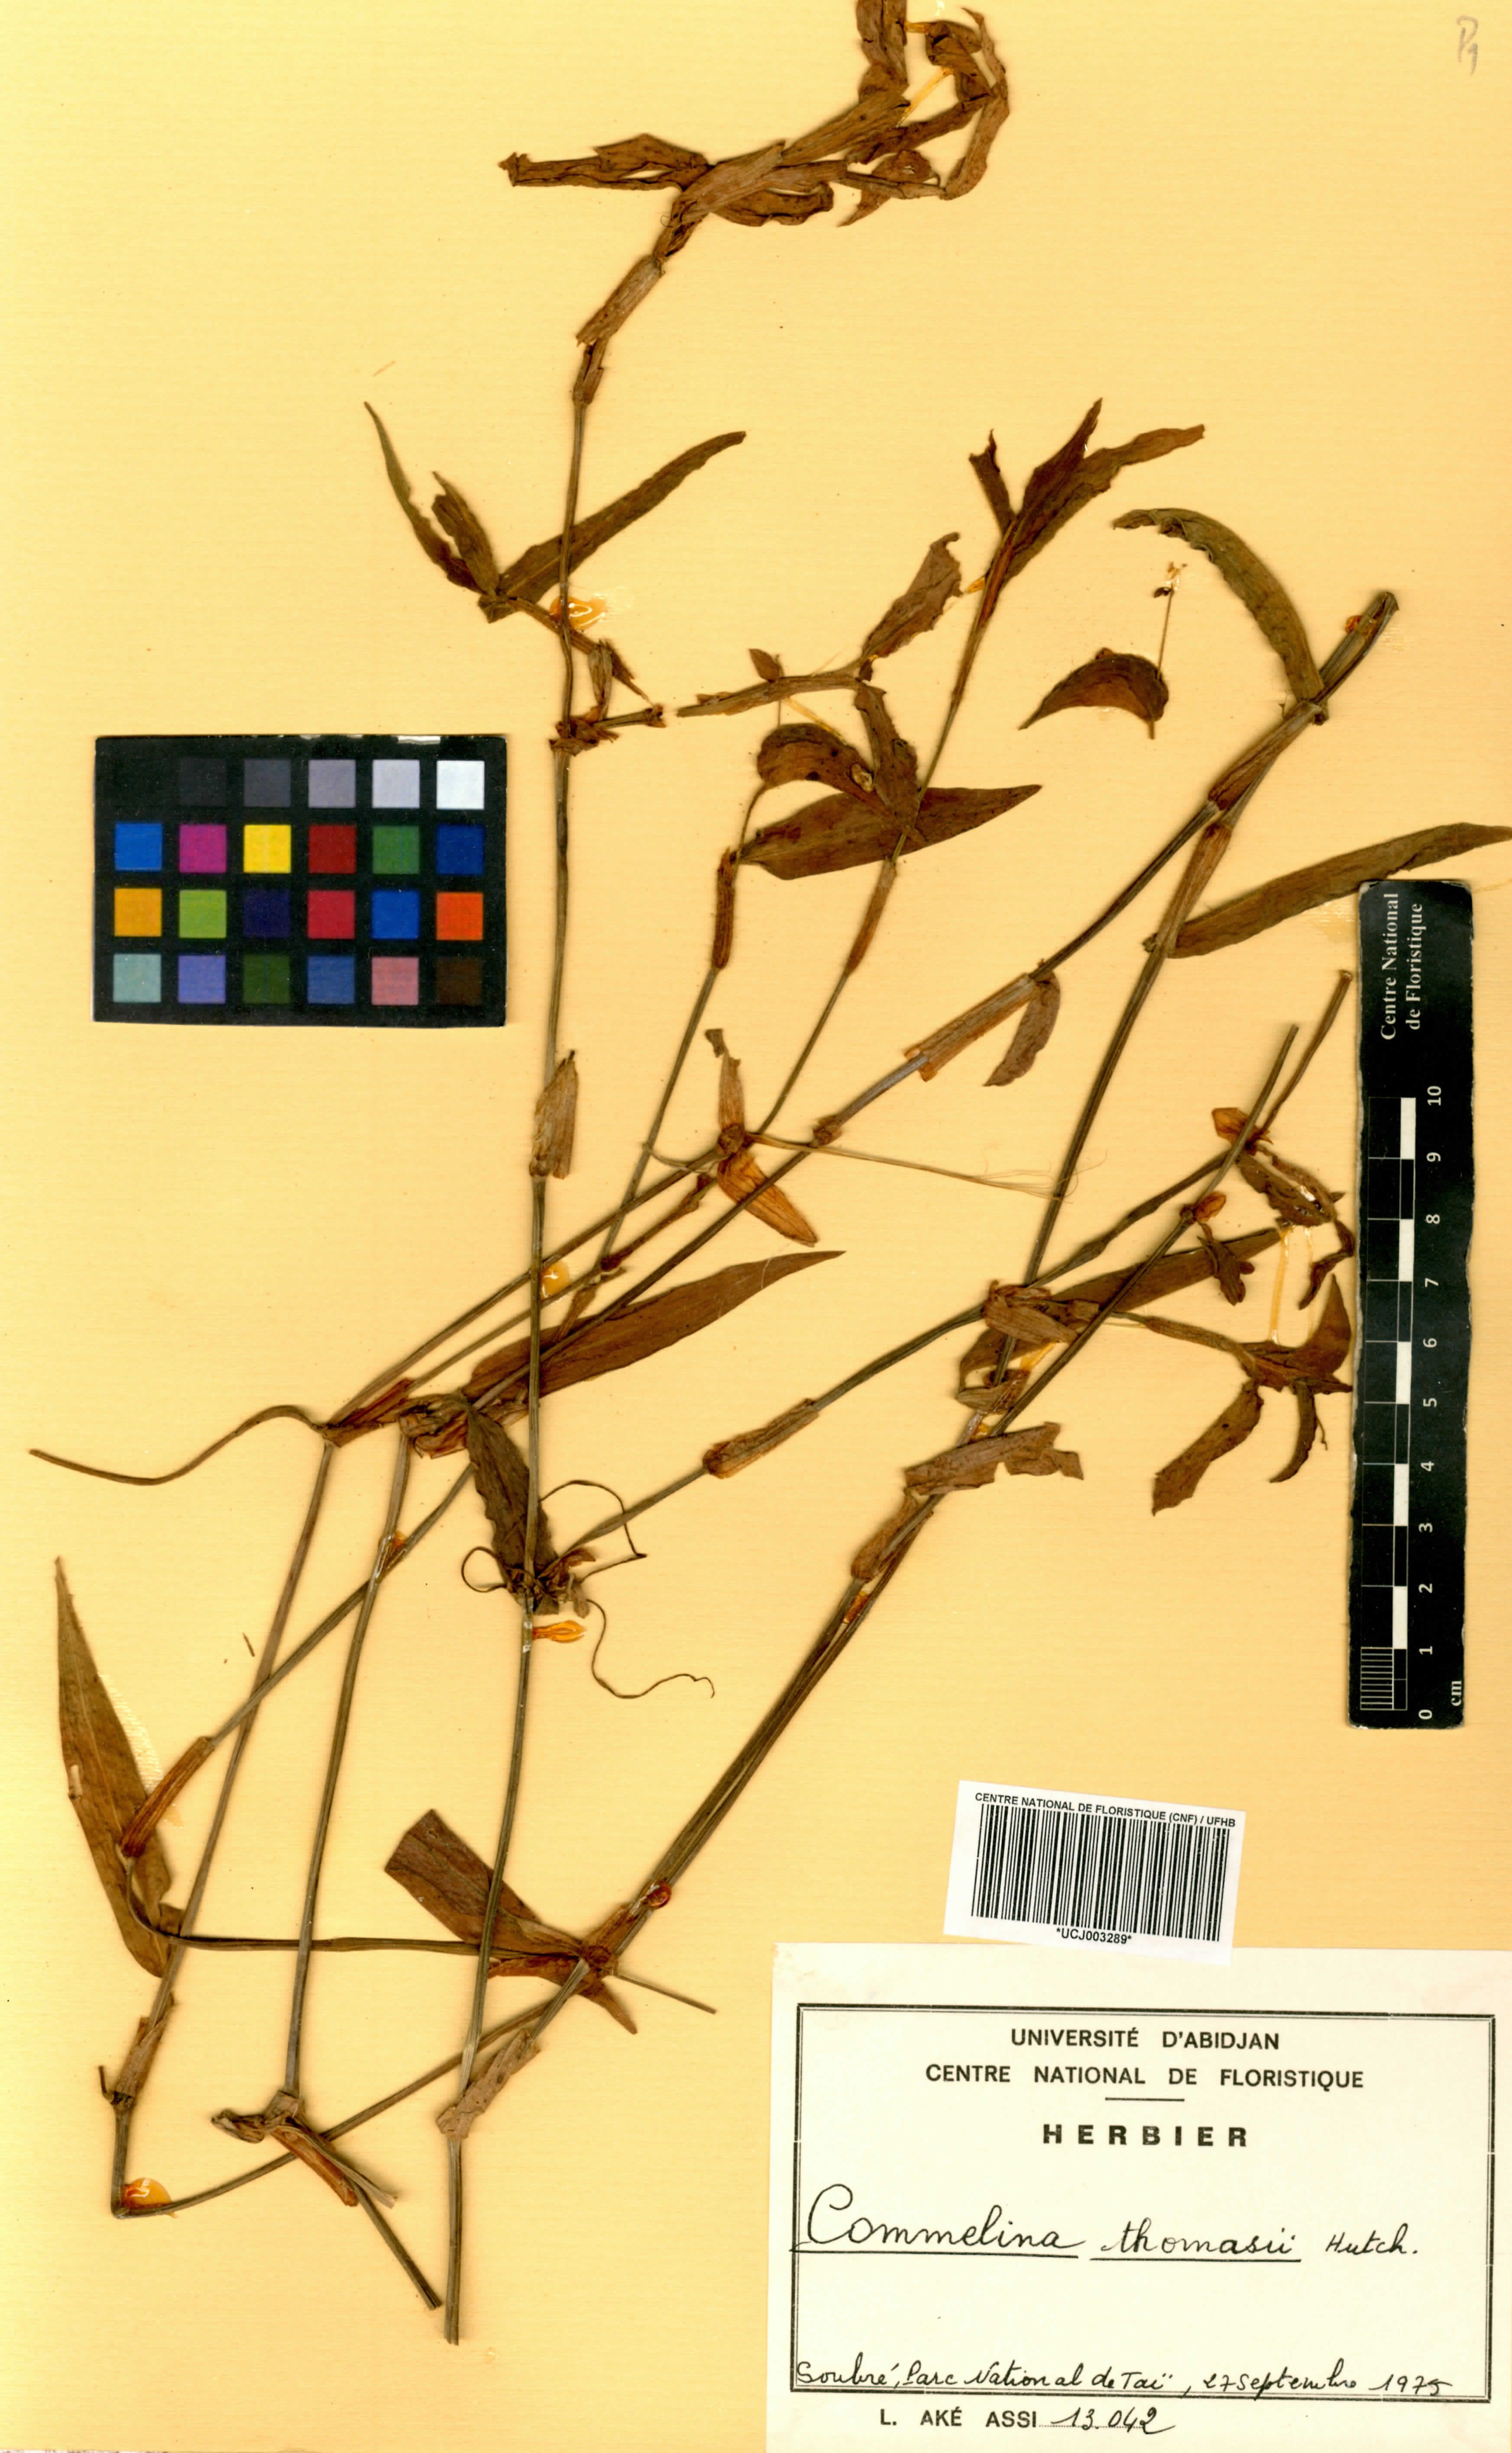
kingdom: Plantae
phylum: Tracheophyta
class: Liliopsida
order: Commelinales
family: Commelinaceae
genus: Commelina
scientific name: Commelina acutispatha
